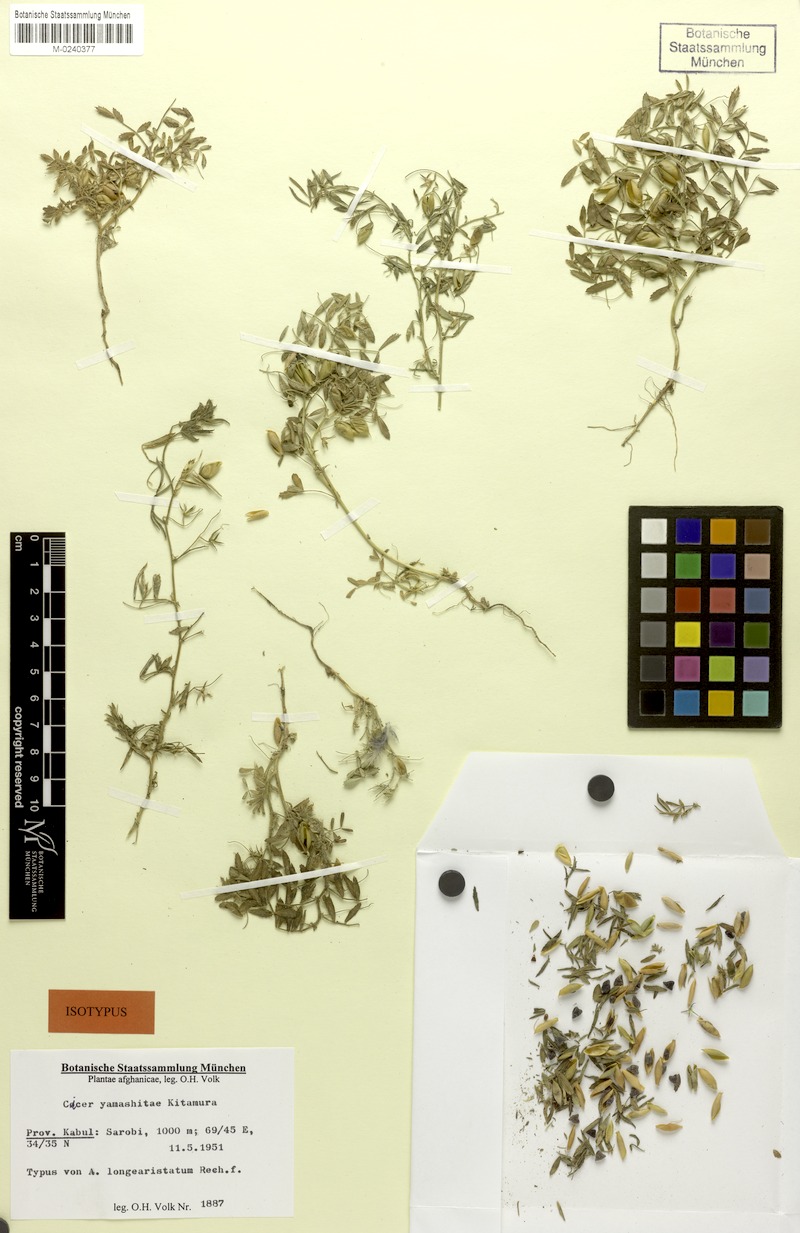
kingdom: Plantae
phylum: Tracheophyta
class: Magnoliopsida
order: Fabales
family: Fabaceae
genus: Cicer
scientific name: Cicer yamashitae
